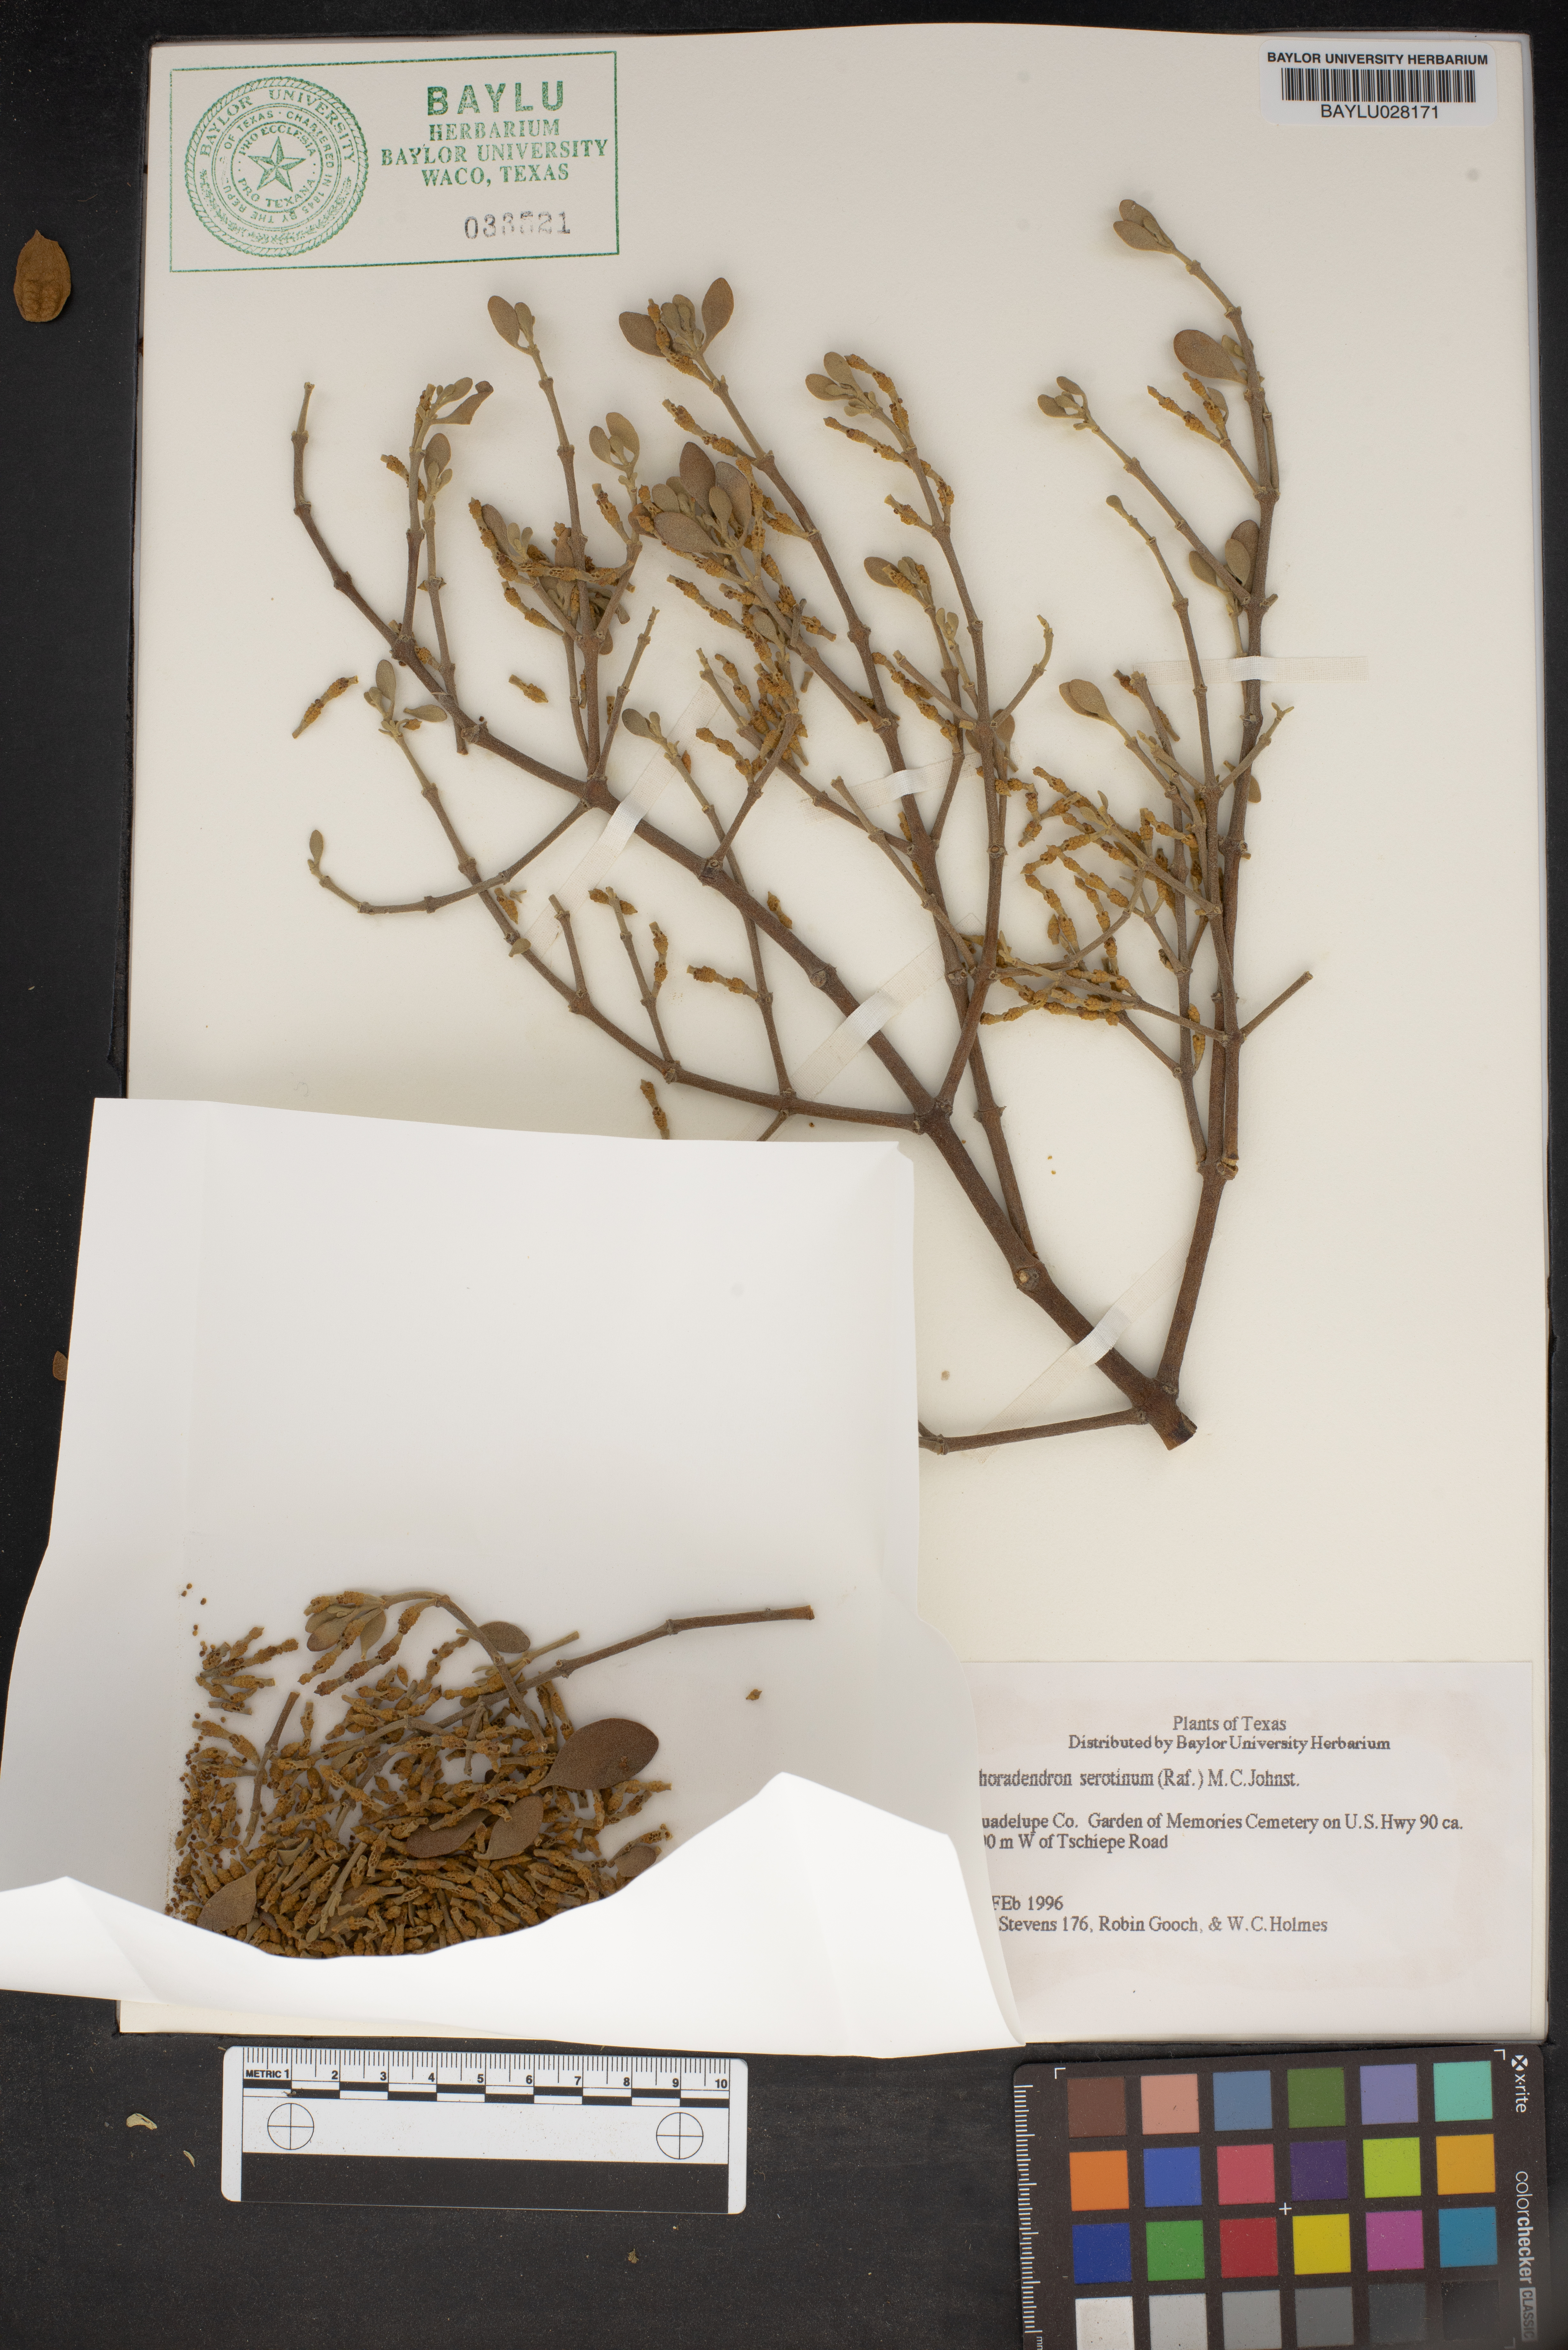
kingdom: Plantae
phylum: Tracheophyta
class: Magnoliopsida
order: Santalales
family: Viscaceae
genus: Phoradendron
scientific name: Phoradendron leucarpum
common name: Pacific mistletoe
